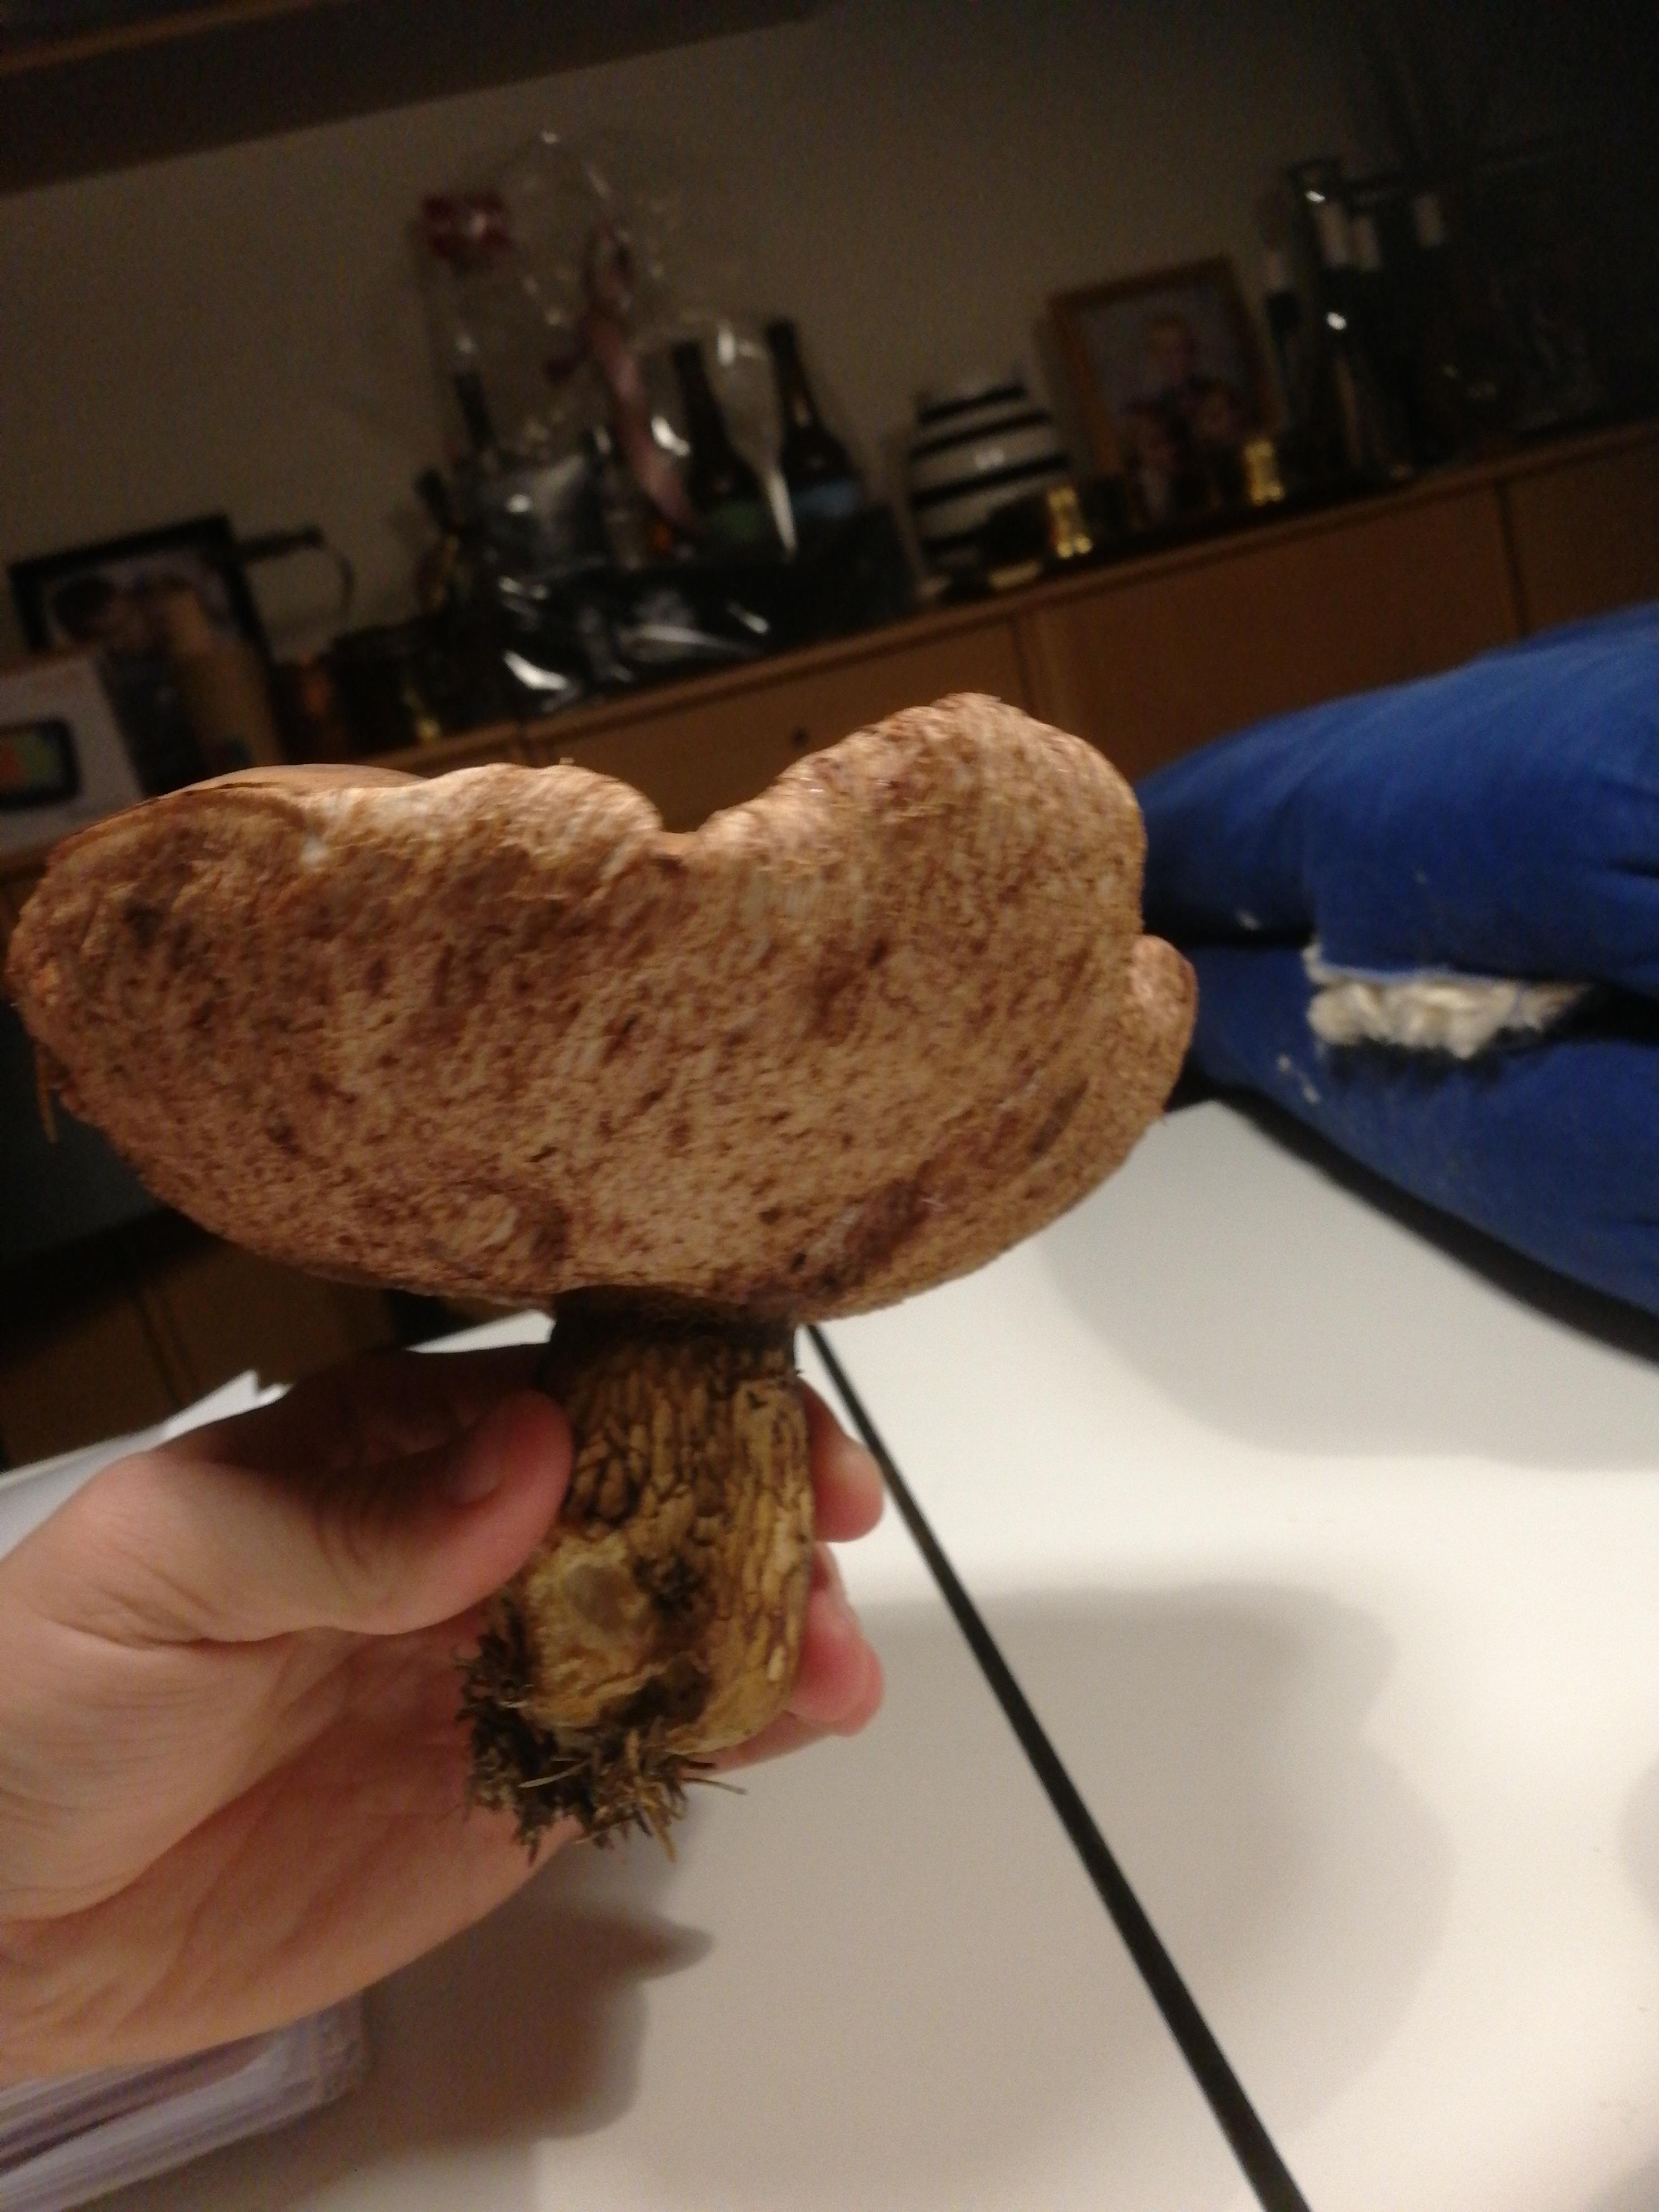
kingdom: Fungi
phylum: Basidiomycota
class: Agaricomycetes
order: Boletales
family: Boletaceae
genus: Tylopilus
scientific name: Tylopilus felleus
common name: galderørhat
